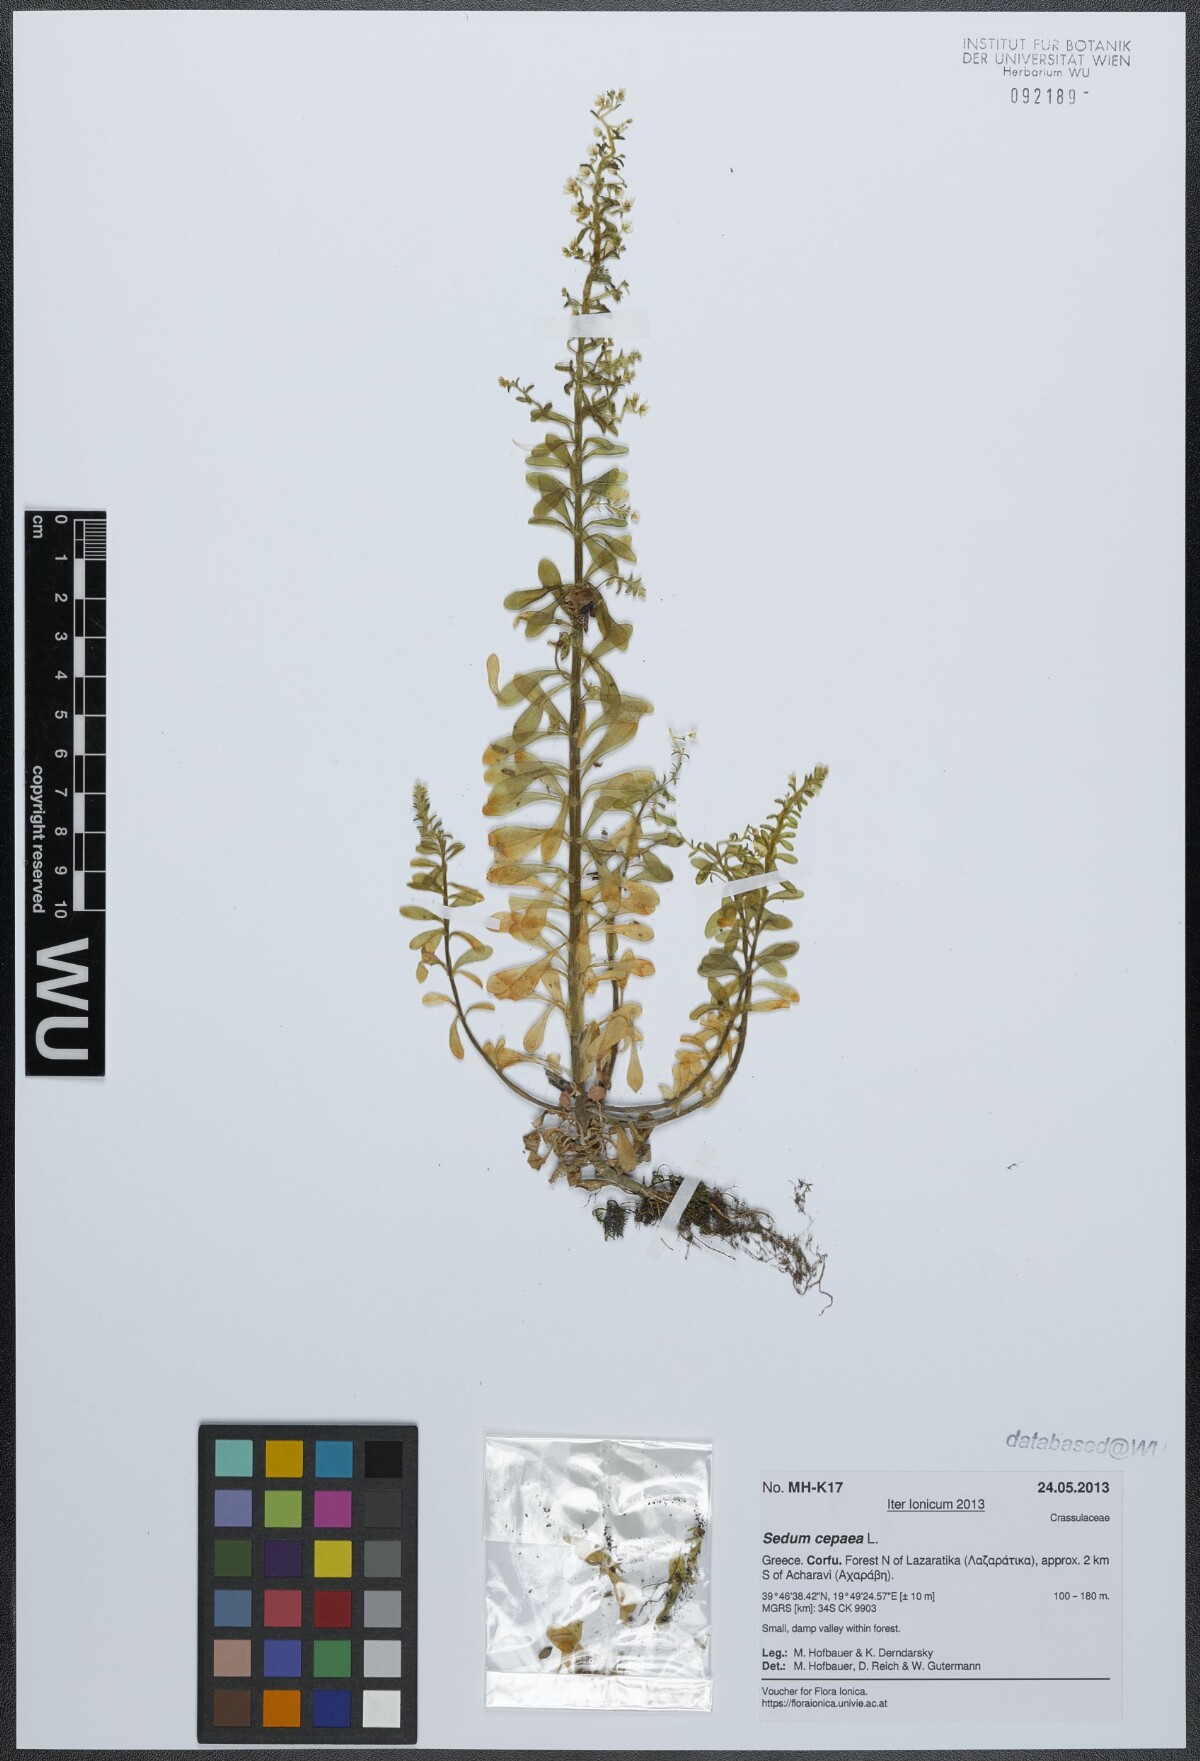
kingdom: Plantae
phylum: Tracheophyta
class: Magnoliopsida
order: Saxifragales
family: Crassulaceae
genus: Sedum
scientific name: Sedum cepaea
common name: Pink stonecrop
